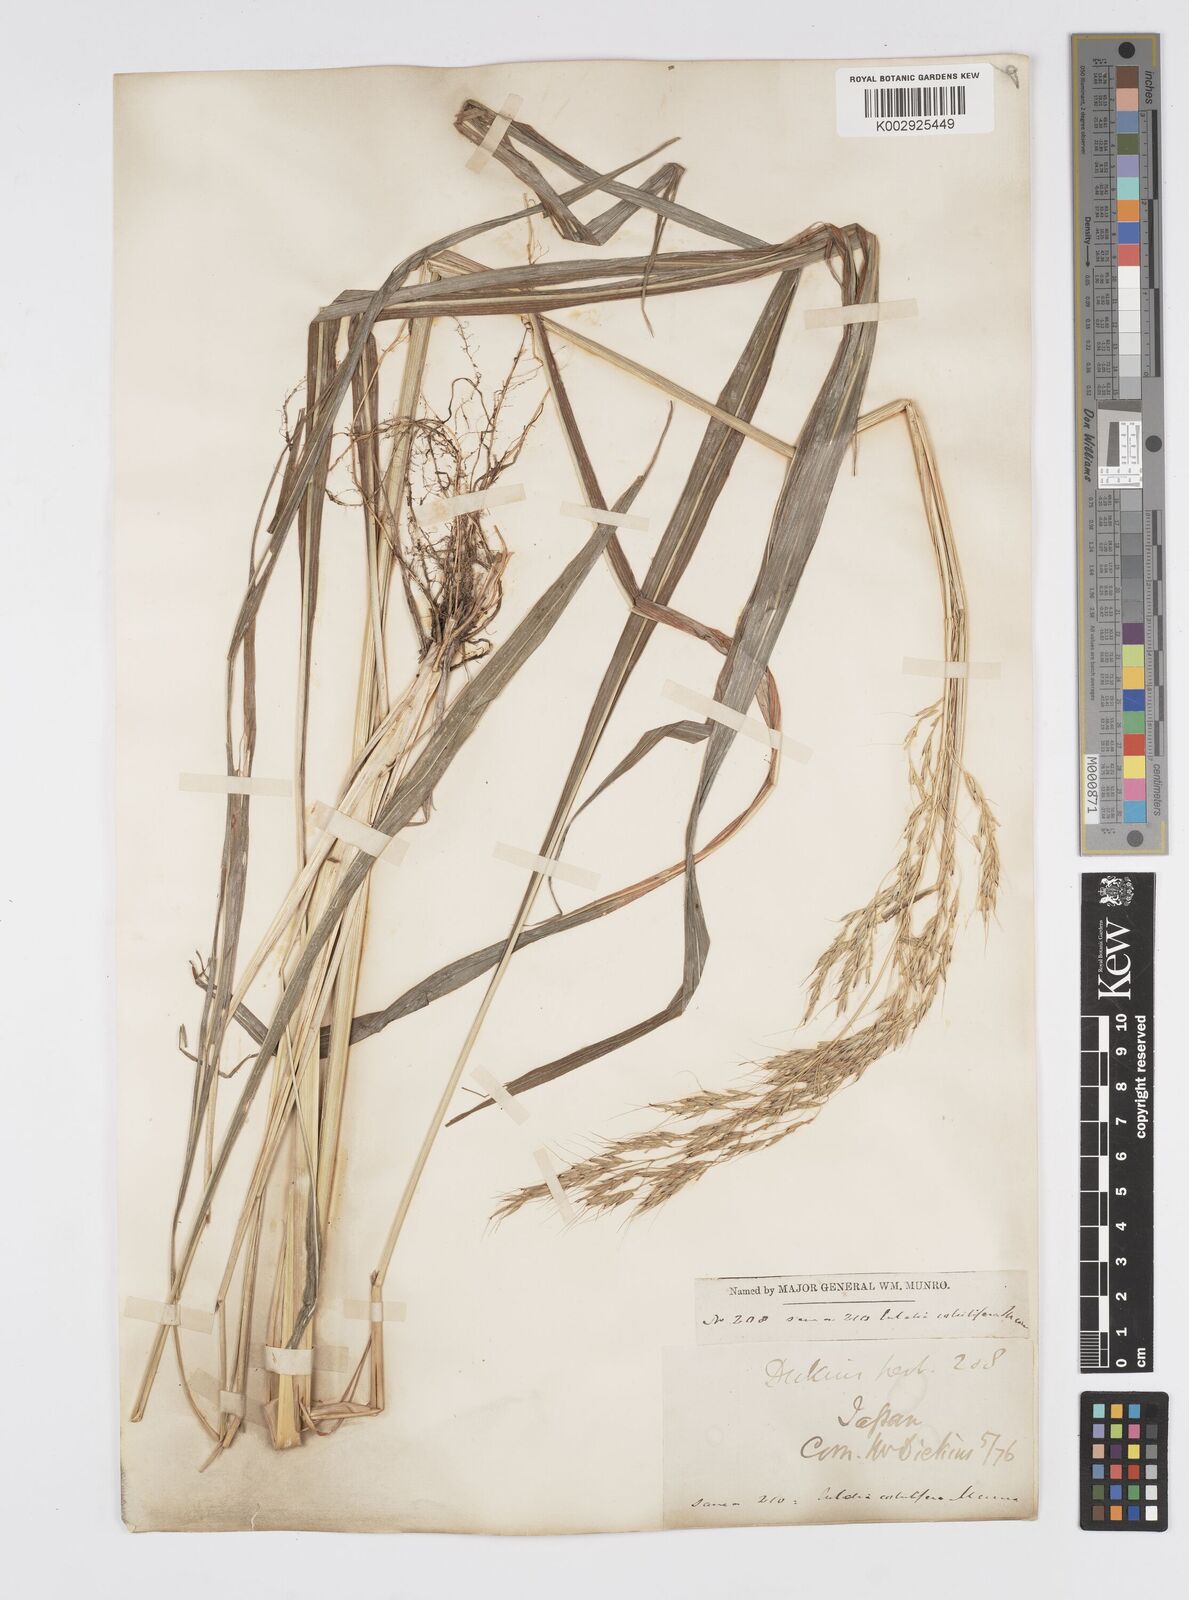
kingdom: Plantae
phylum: Tracheophyta
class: Liliopsida
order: Poales
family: Poaceae
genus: Spodiopogon
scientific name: Spodiopogon cotulifer
